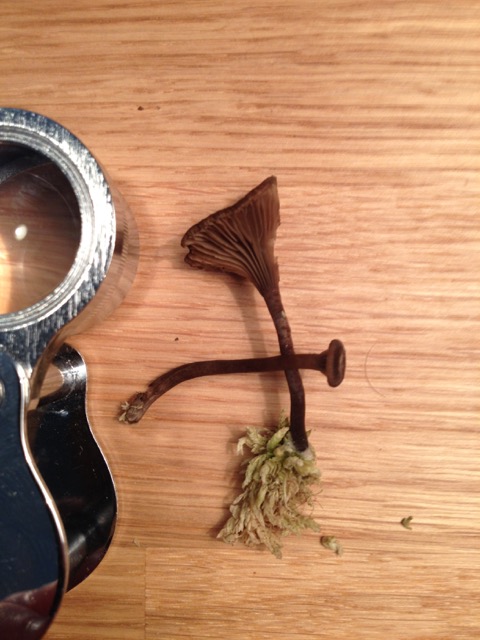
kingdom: Fungi
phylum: Basidiomycota
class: Agaricomycetes
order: Agaricales
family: Hygrophoraceae
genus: Arrhenia
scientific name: Arrhenia gerardiana
